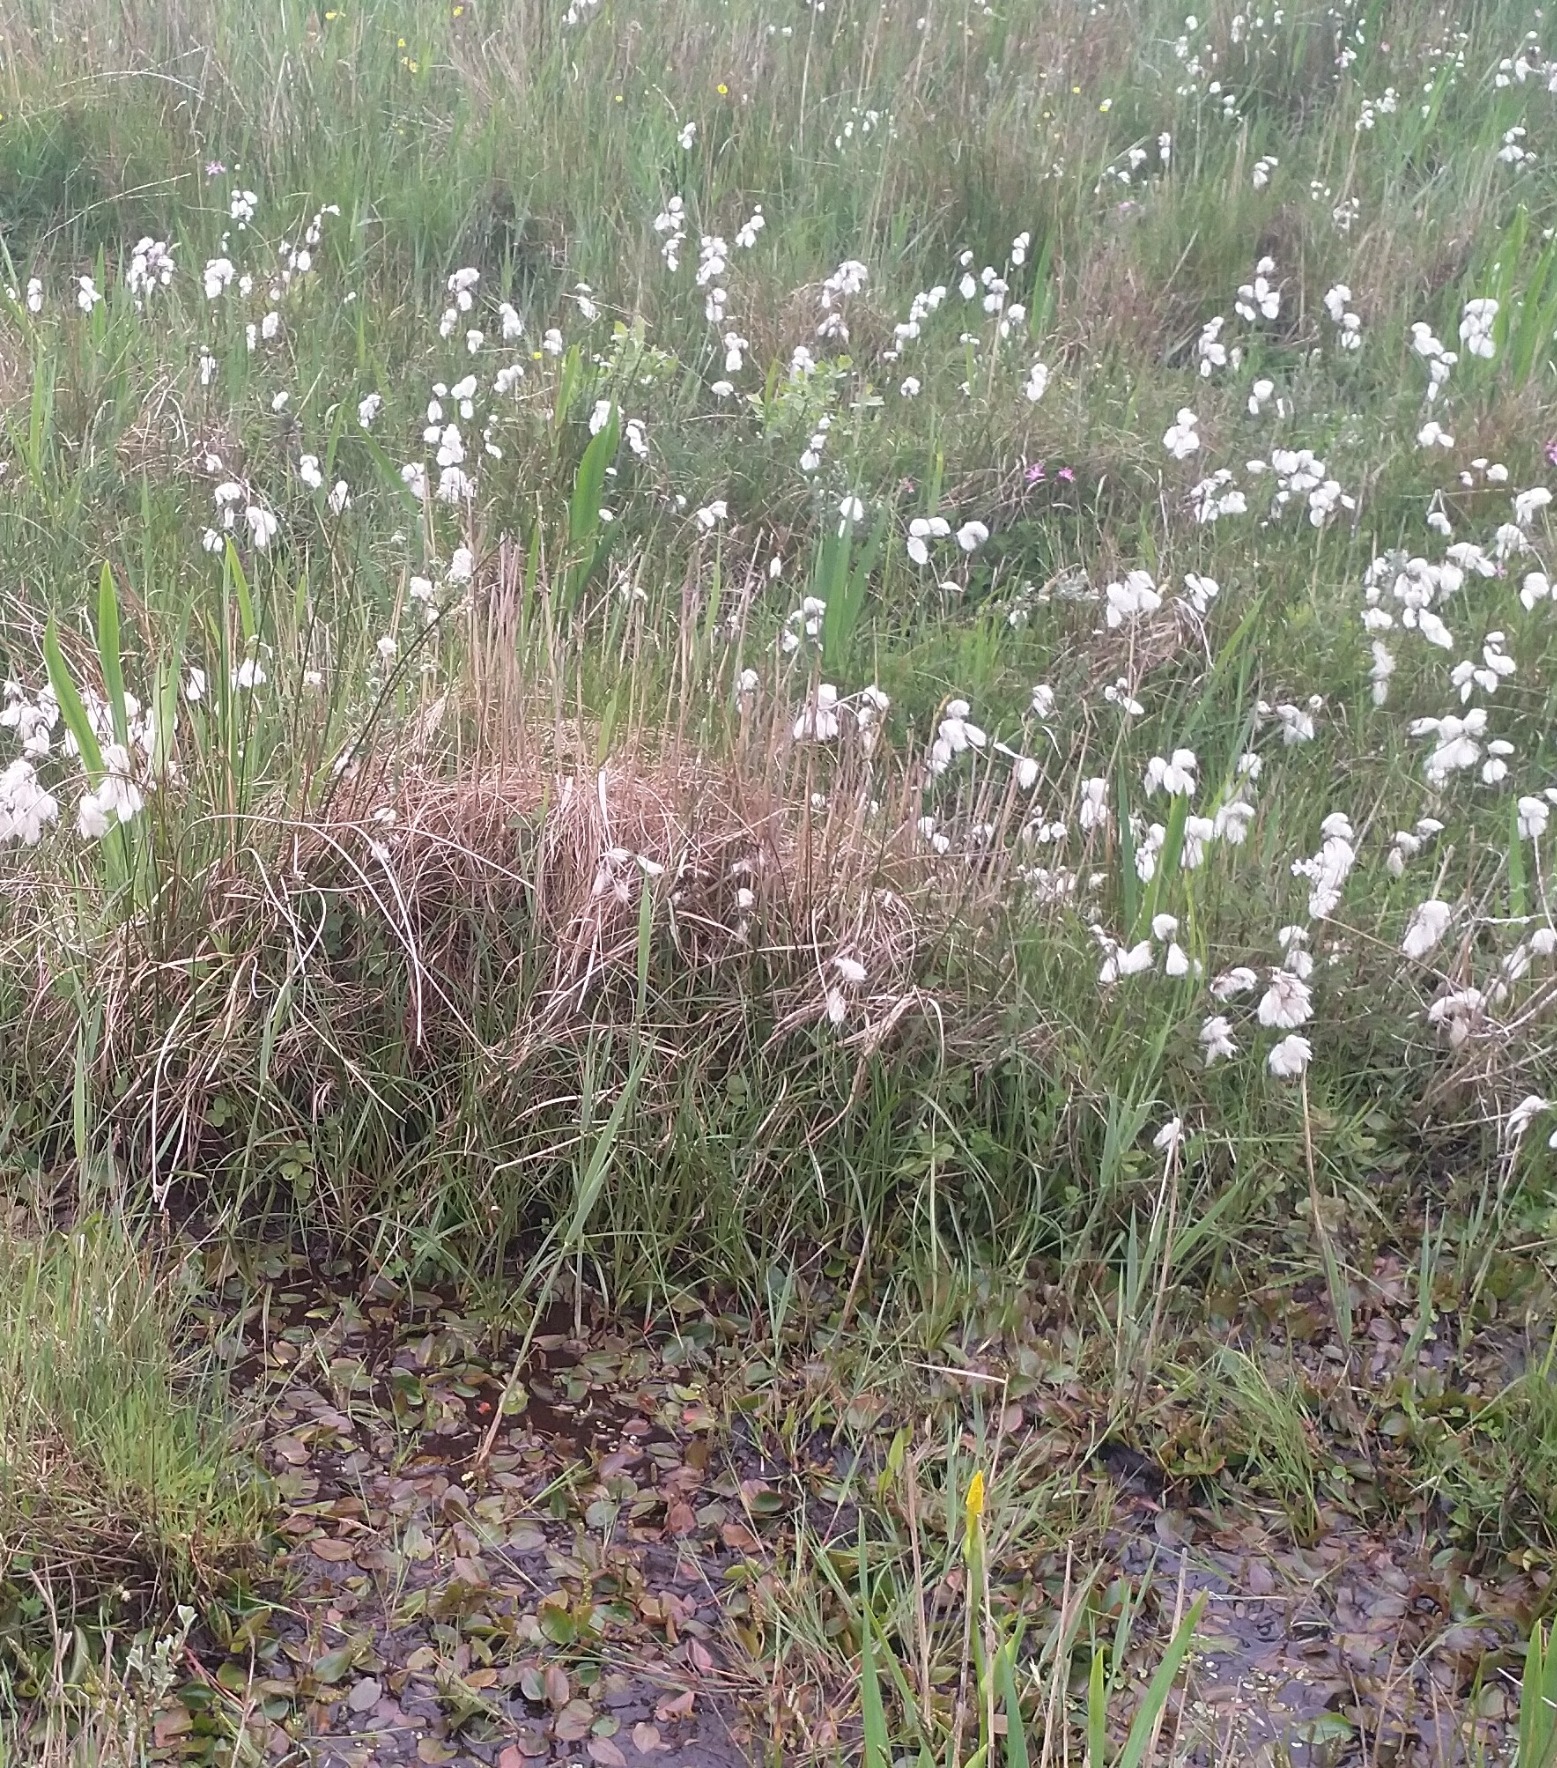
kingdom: Plantae
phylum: Tracheophyta
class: Liliopsida
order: Poales
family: Cyperaceae
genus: Eriophorum
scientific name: Eriophorum angustifolium
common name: Smalbladet kæruld
